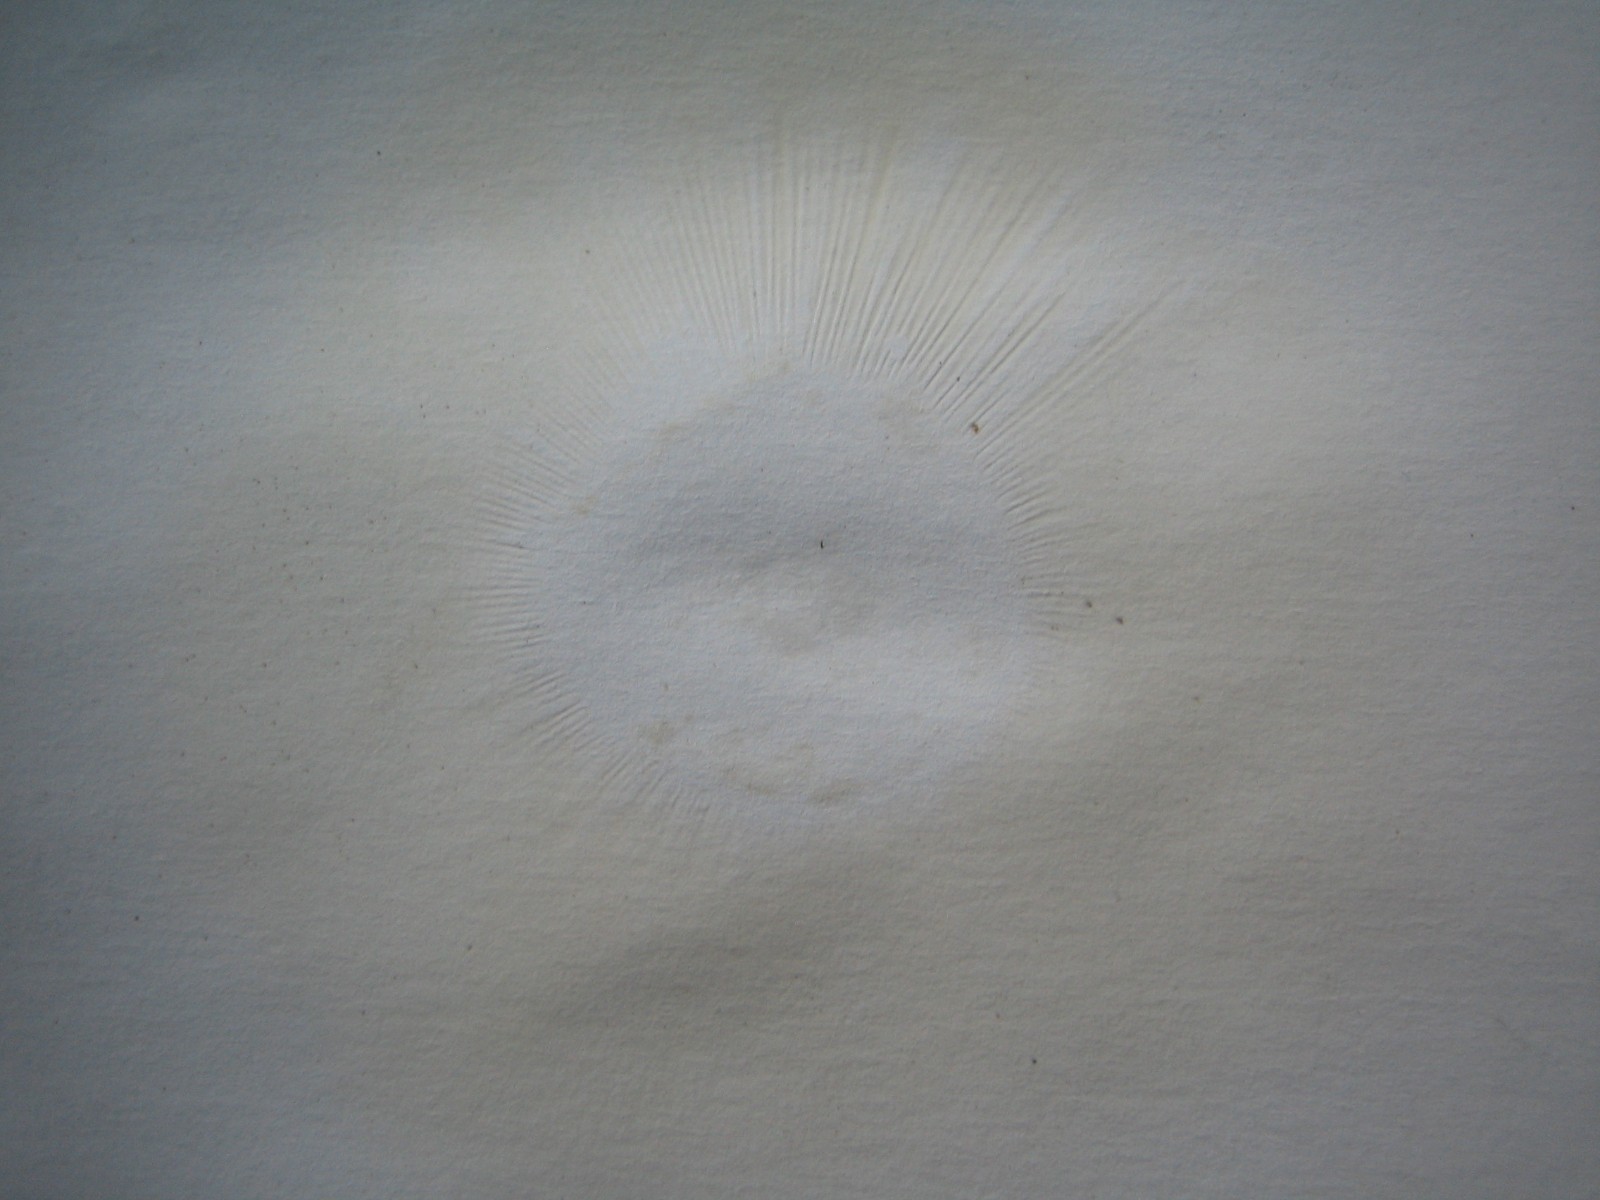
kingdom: Fungi
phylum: Basidiomycota
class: Agaricomycetes
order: Russulales
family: Russulaceae
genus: Russula
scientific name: Russula ochroleuca
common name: okkergul skørhat
